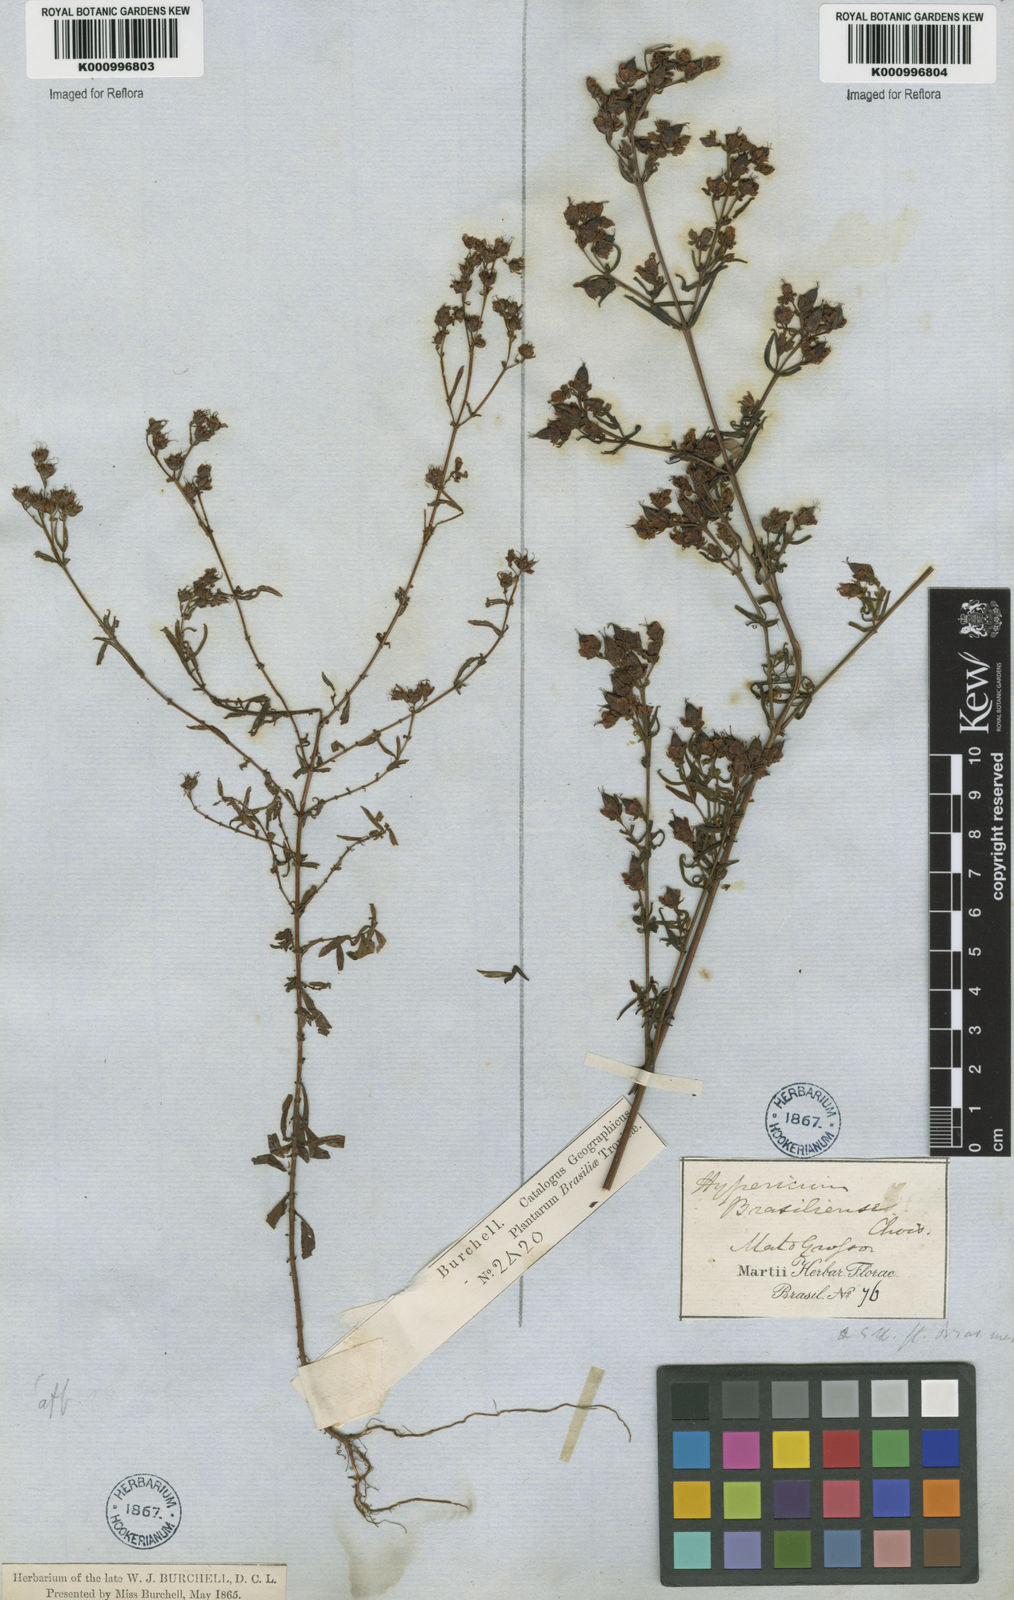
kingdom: Plantae
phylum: Tracheophyta
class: Magnoliopsida
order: Malpighiales
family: Hypericaceae
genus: Hypericum
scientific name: Hypericum brasiliense
